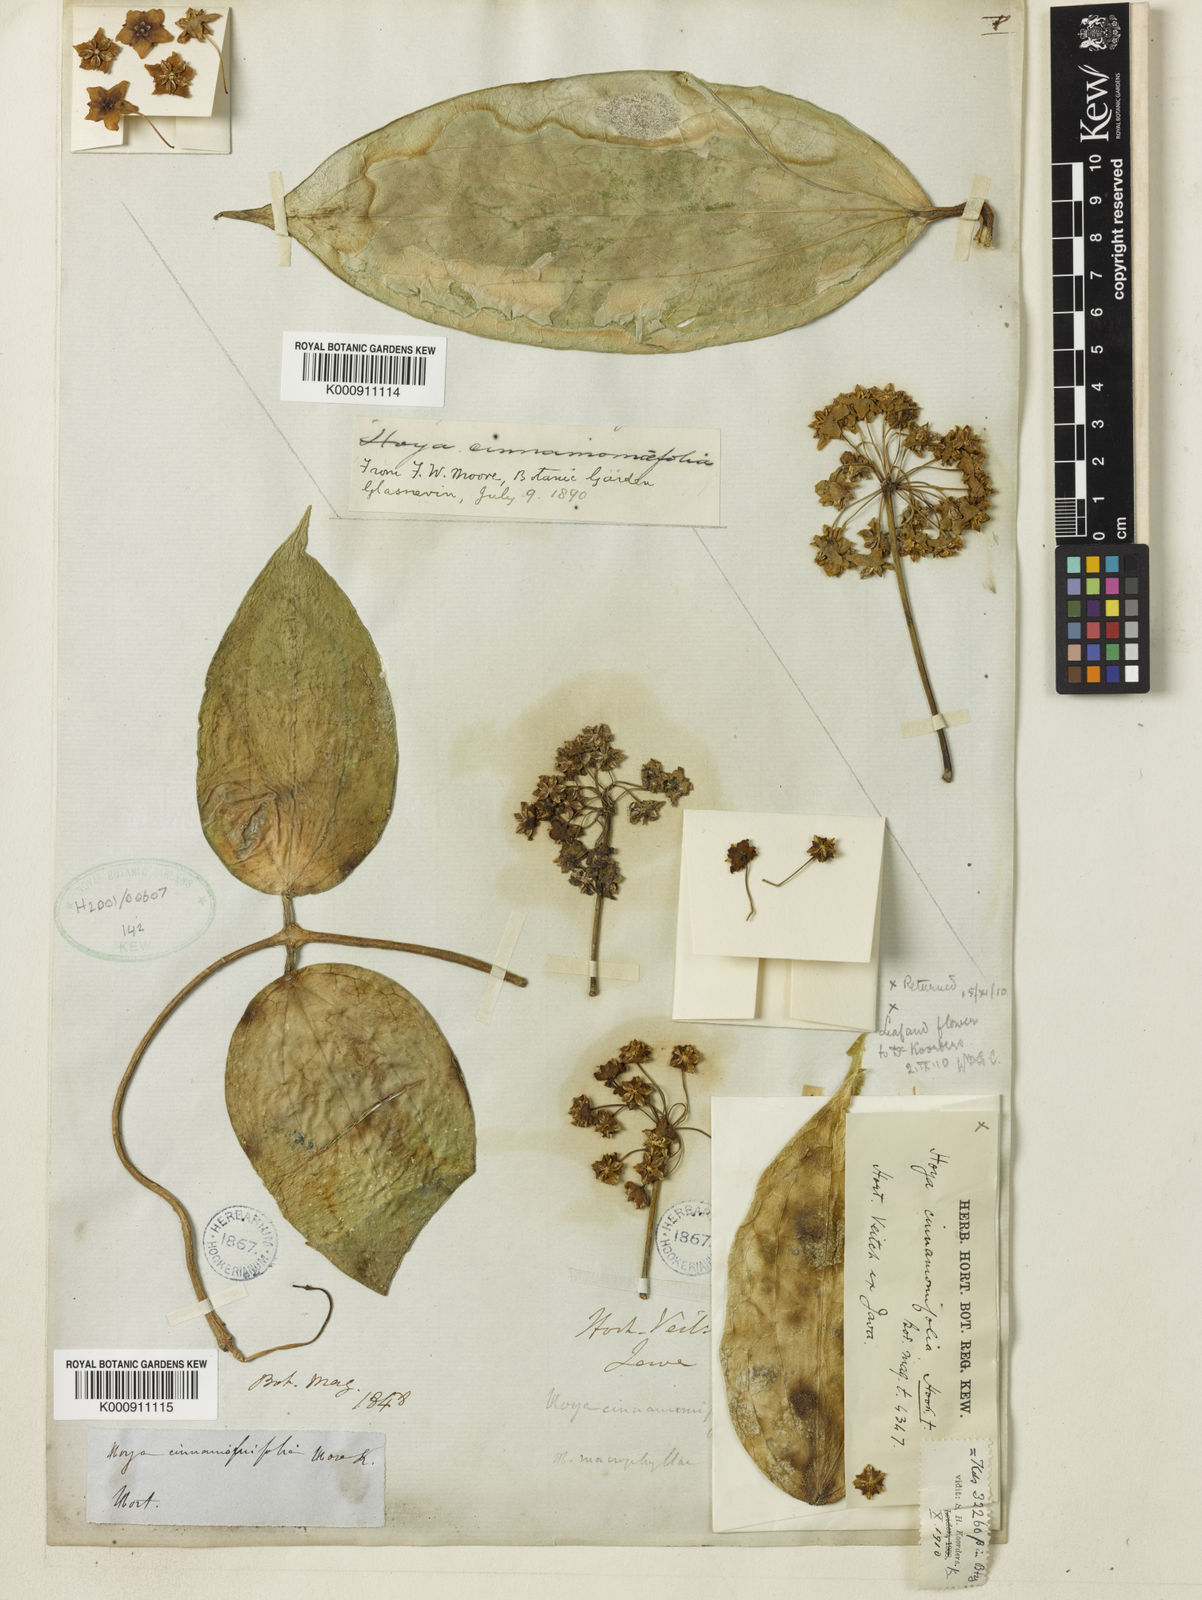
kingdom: Plantae
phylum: Tracheophyta
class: Magnoliopsida
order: Gentianales
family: Apocynaceae
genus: Hoya
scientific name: Hoya cinnamomifolia
